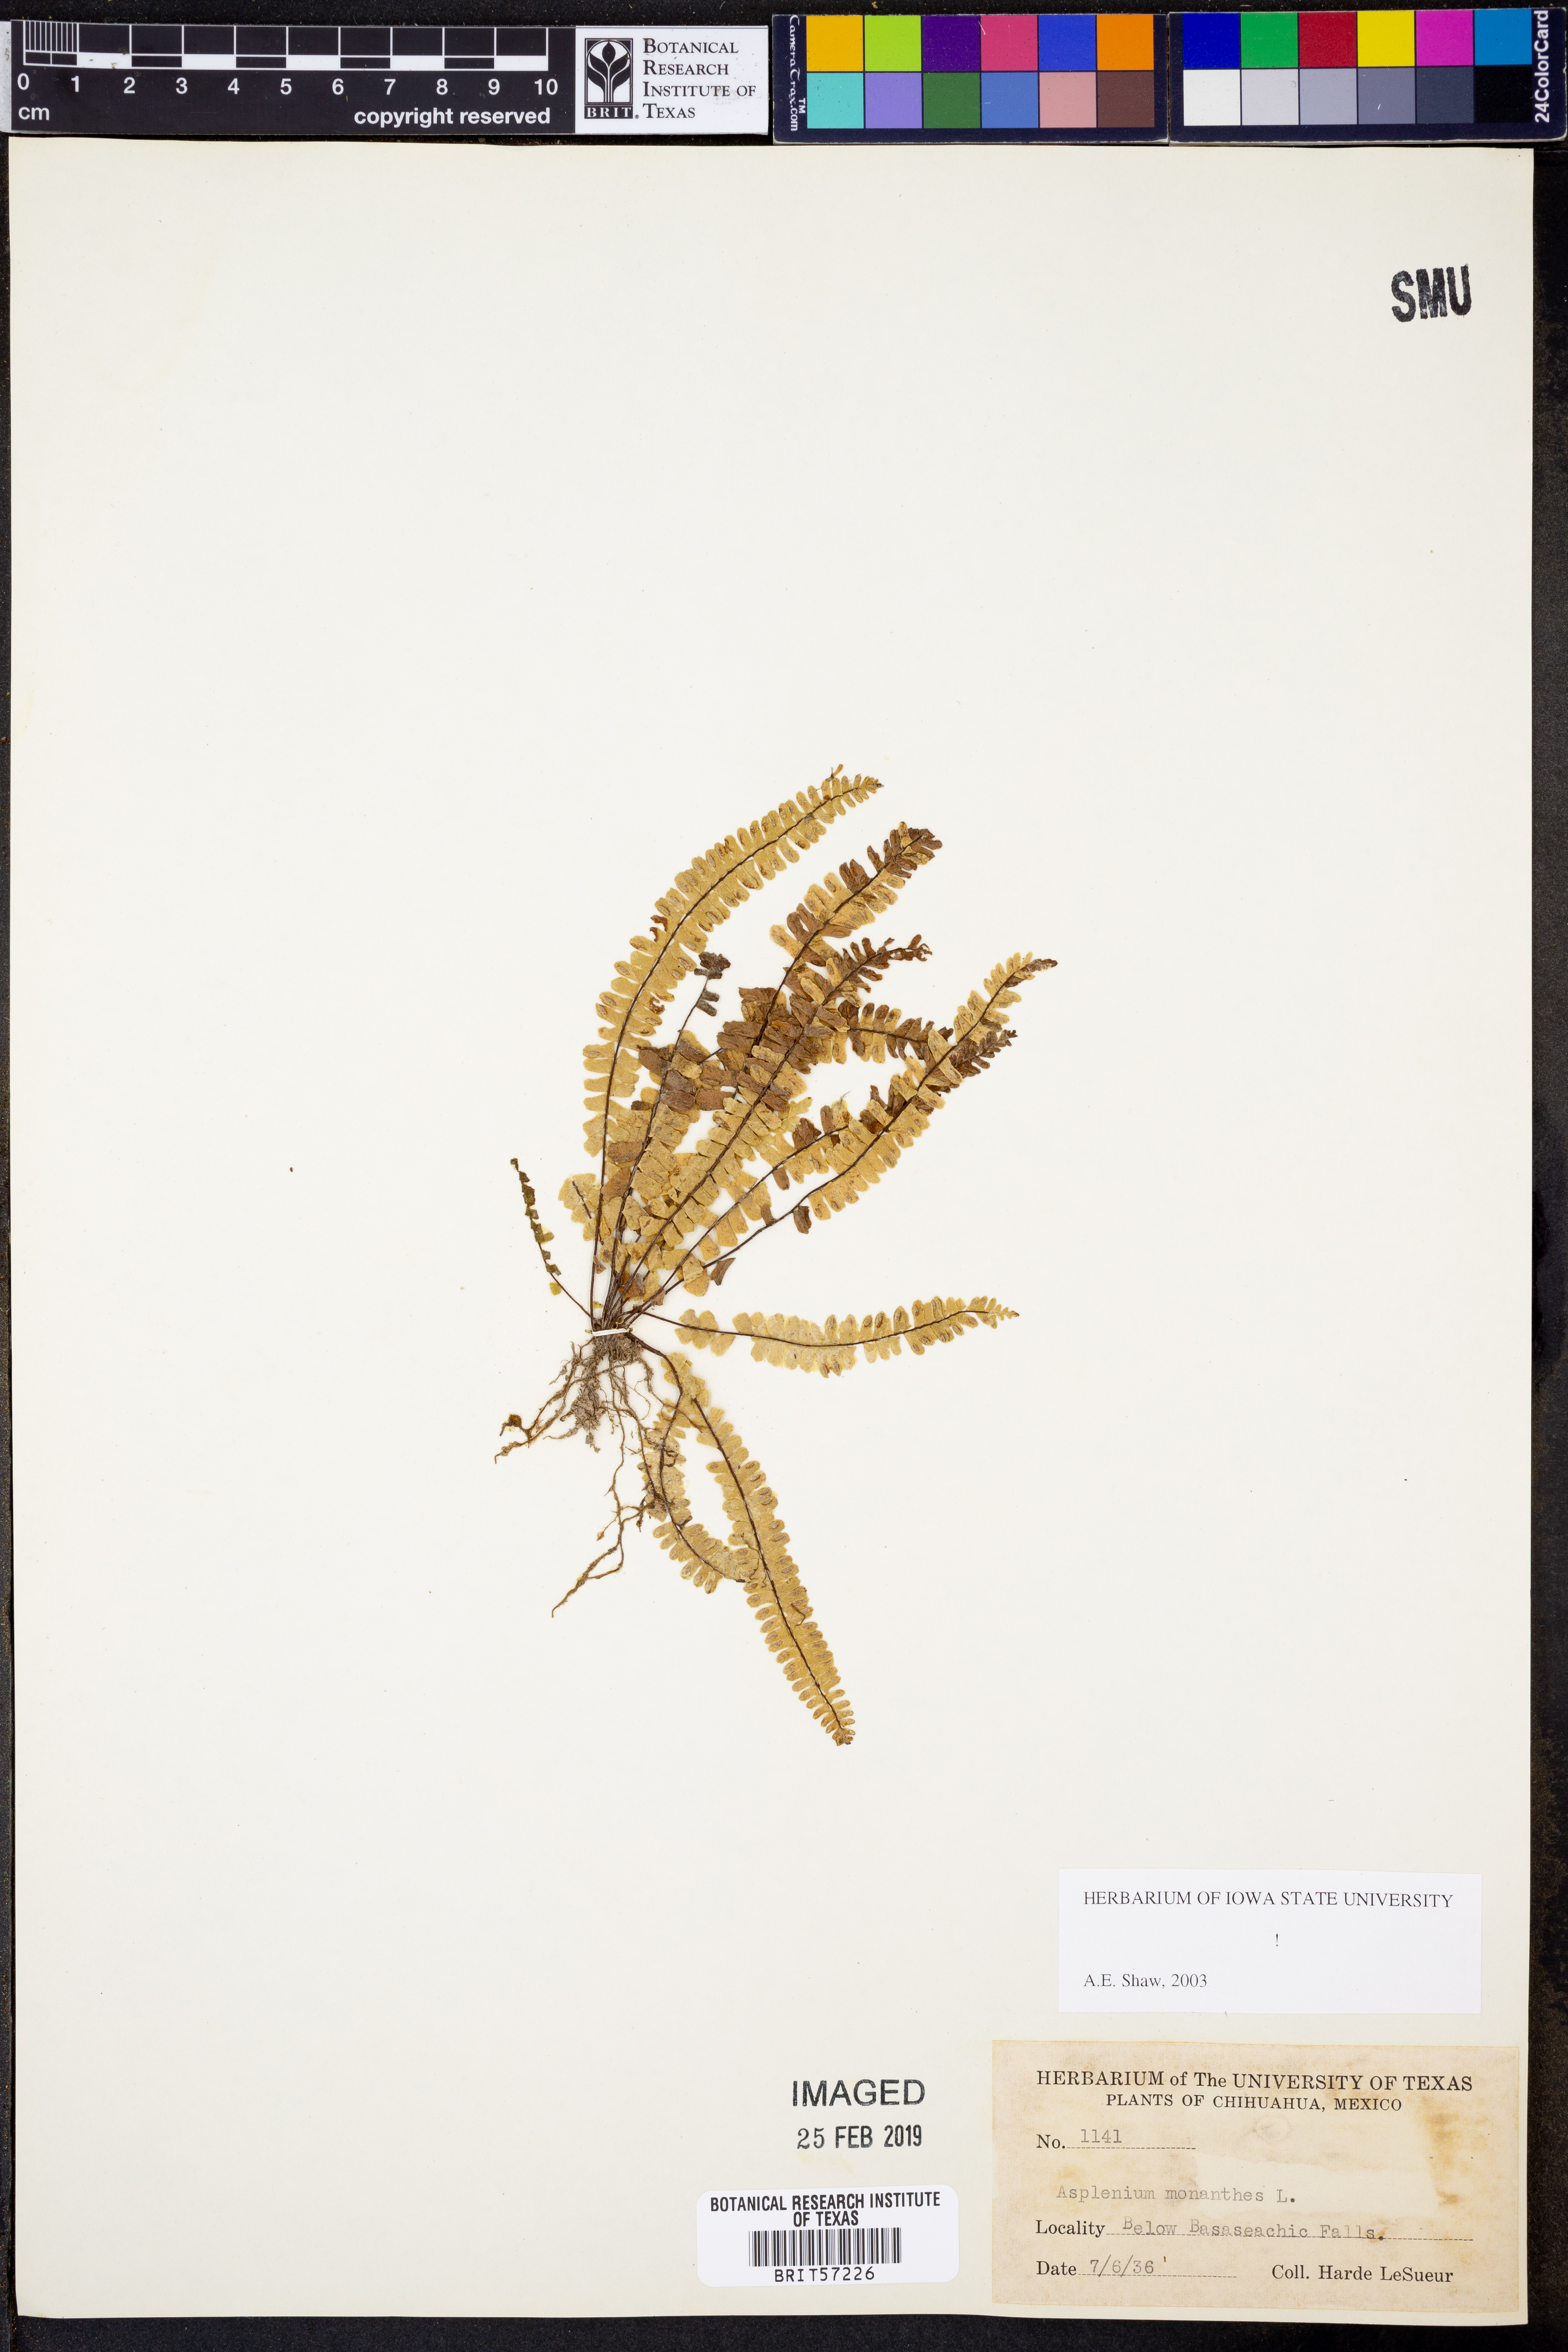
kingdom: Plantae
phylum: Tracheophyta
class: Polypodiopsida
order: Polypodiales
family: Aspleniaceae
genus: Asplenium
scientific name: Asplenium monanthes
